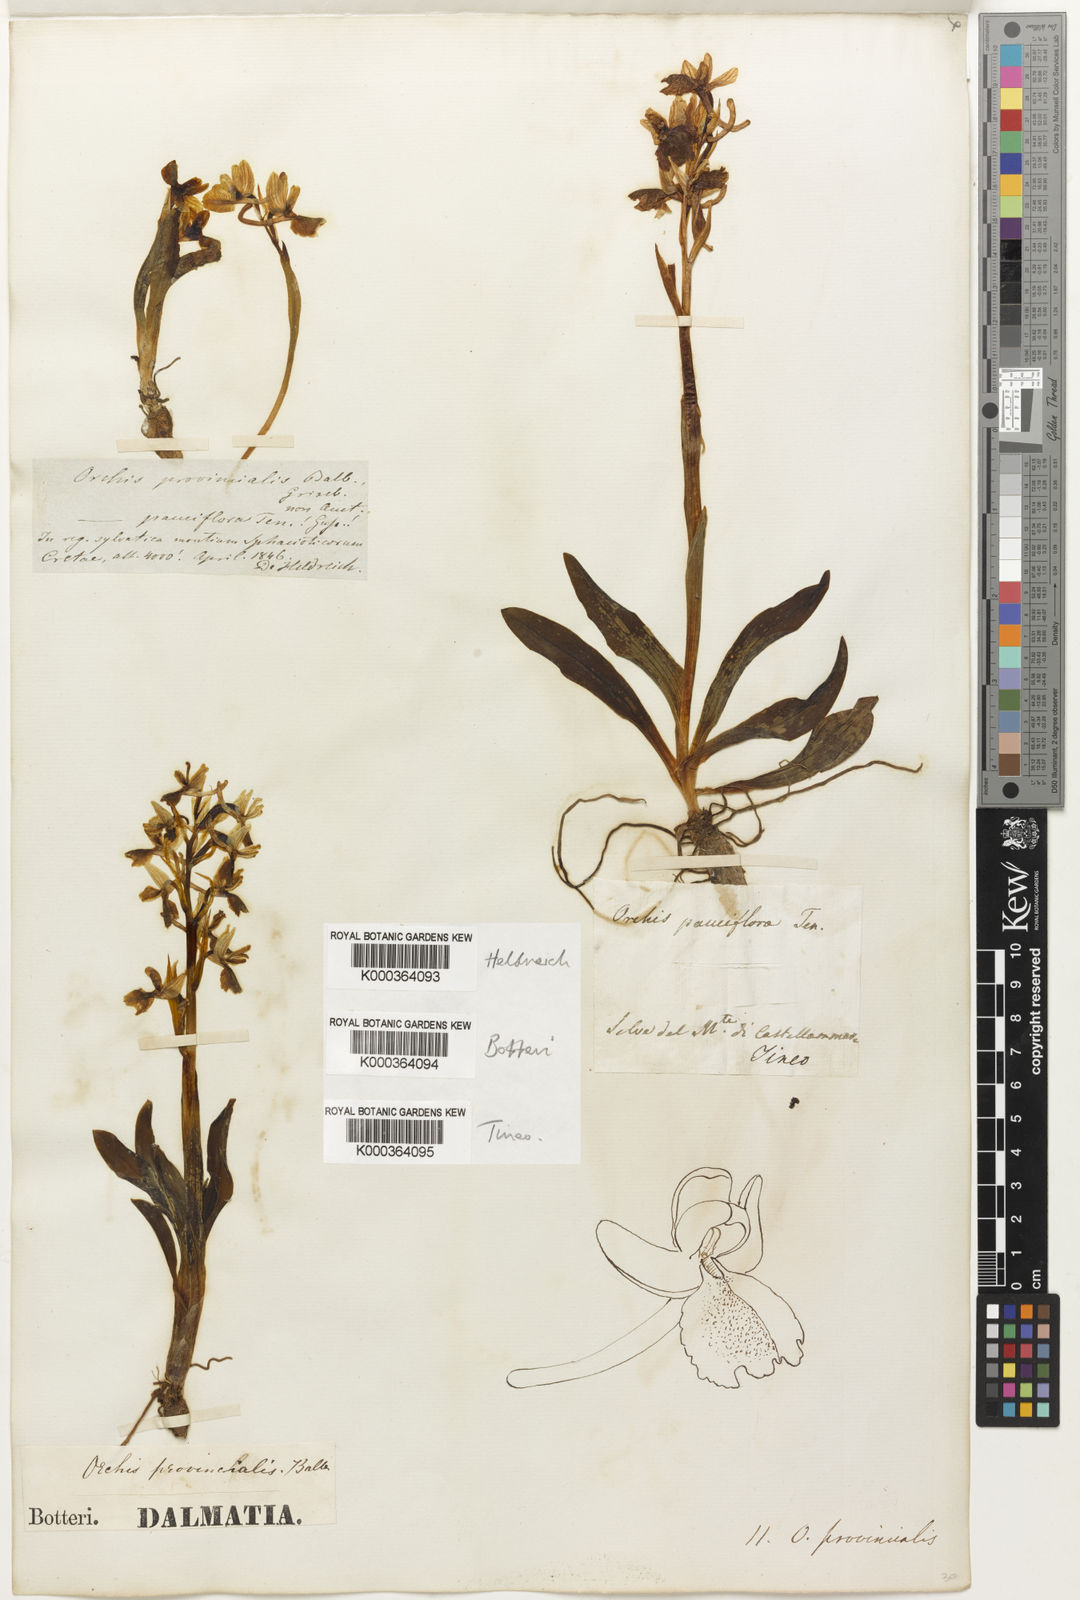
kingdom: Plantae
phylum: Tracheophyta
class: Liliopsida
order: Asparagales
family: Orchidaceae
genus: Orchis
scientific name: Orchis
